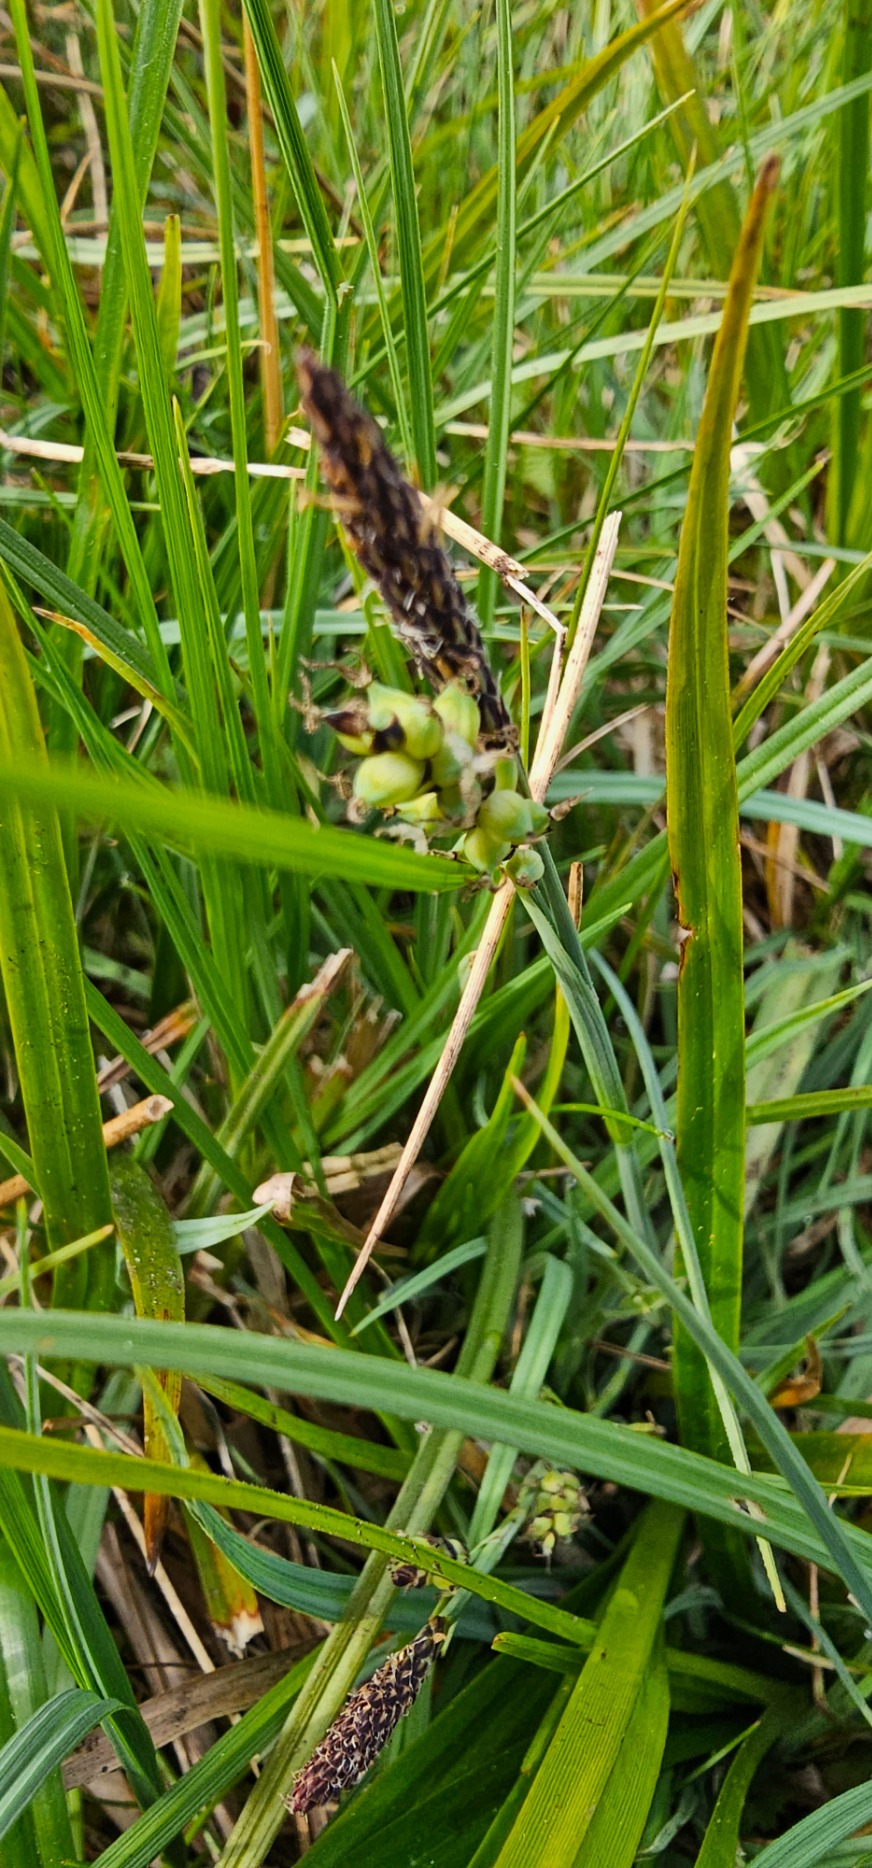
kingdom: Plantae
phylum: Tracheophyta
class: Liliopsida
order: Poales
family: Cyperaceae
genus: Carex
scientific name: Carex panicea
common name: Hirse-star
